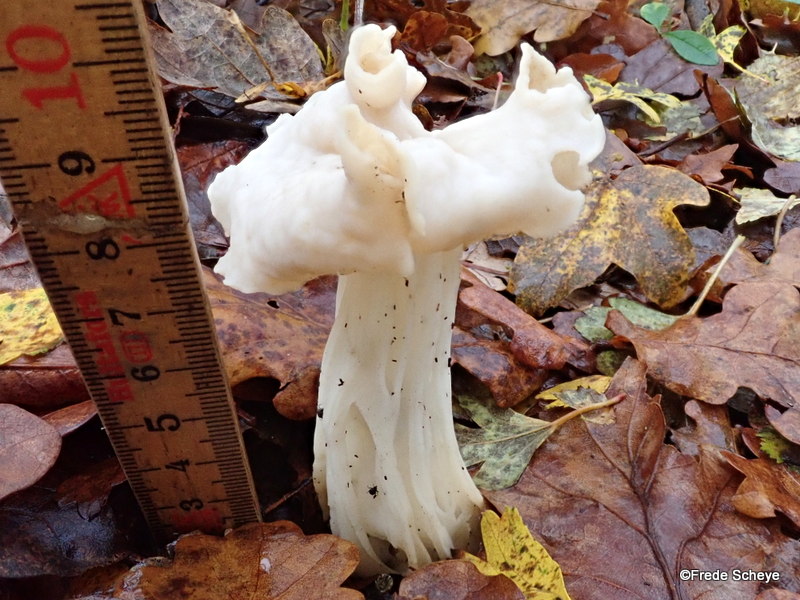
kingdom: Fungi
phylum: Ascomycota
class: Pezizomycetes
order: Pezizales
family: Helvellaceae
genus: Helvella
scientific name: Helvella crispa
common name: kruset foldhat
